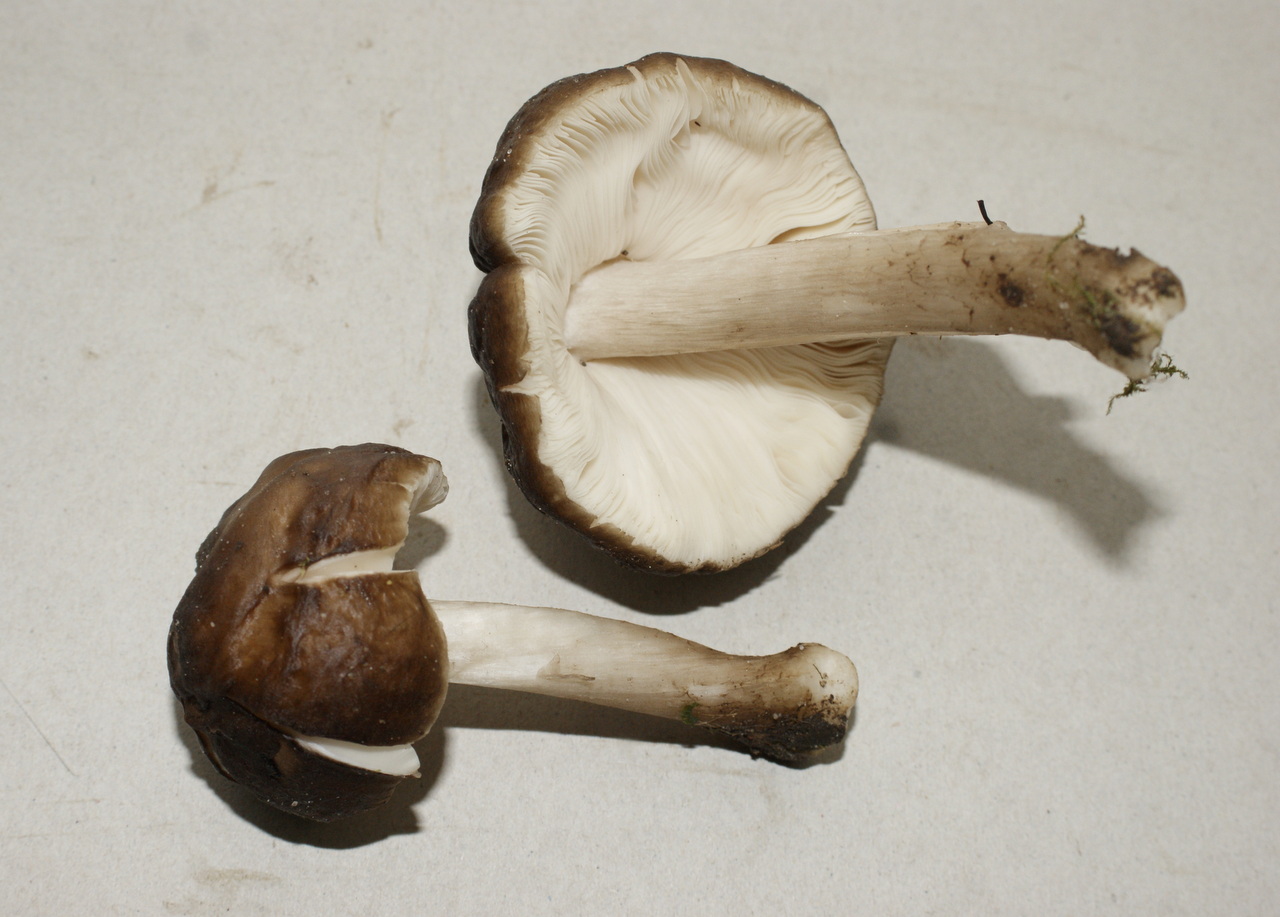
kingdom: Fungi
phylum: Basidiomycota
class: Agaricomycetes
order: Agaricales
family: Pluteaceae
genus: Pluteus
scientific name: Pluteus cervinus
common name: sodfarvet skærmhat
